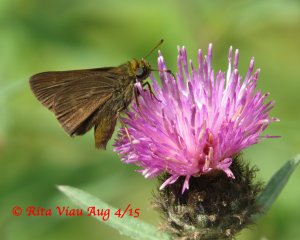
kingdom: Animalia
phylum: Arthropoda
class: Insecta
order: Lepidoptera
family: Hesperiidae
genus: Euphyes
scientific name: Euphyes vestris
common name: Dun Skipper
